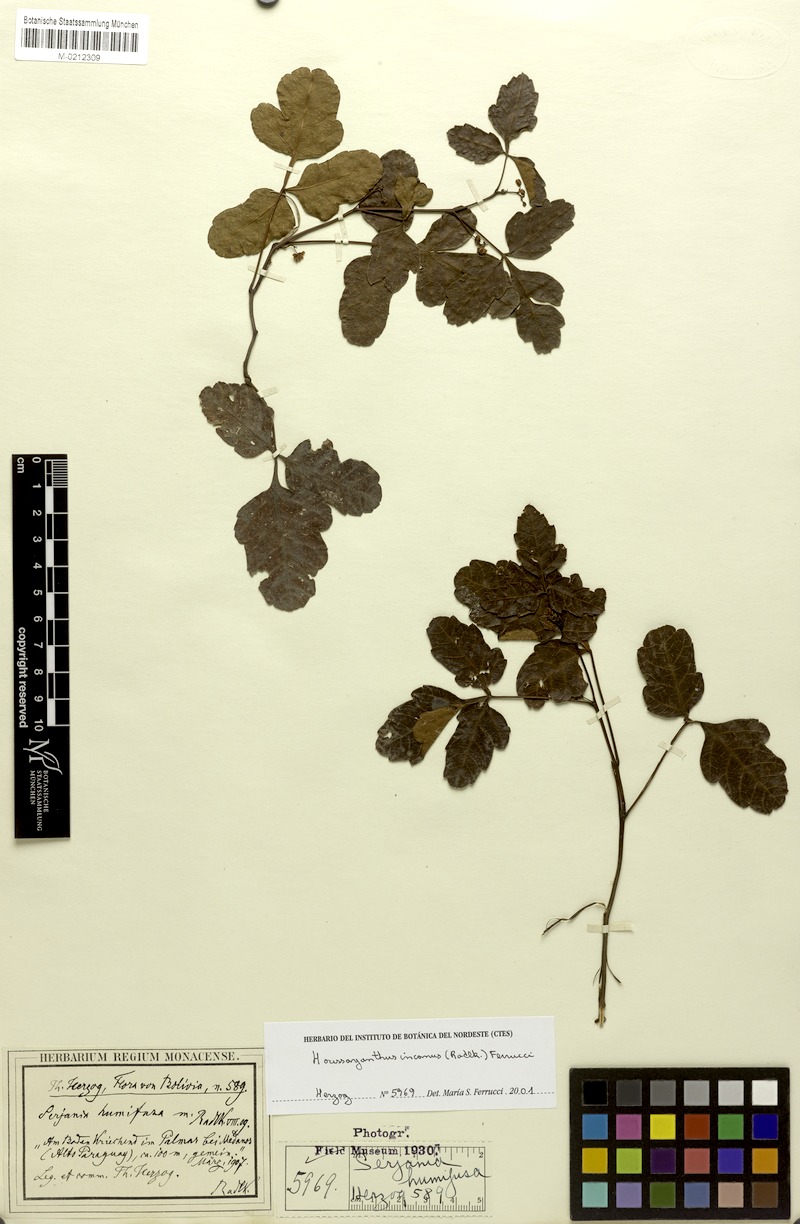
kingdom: Plantae
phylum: Tracheophyta
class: Magnoliopsida
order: Sapindales
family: Sapindaceae
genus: Serjania
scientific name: Serjania incana
